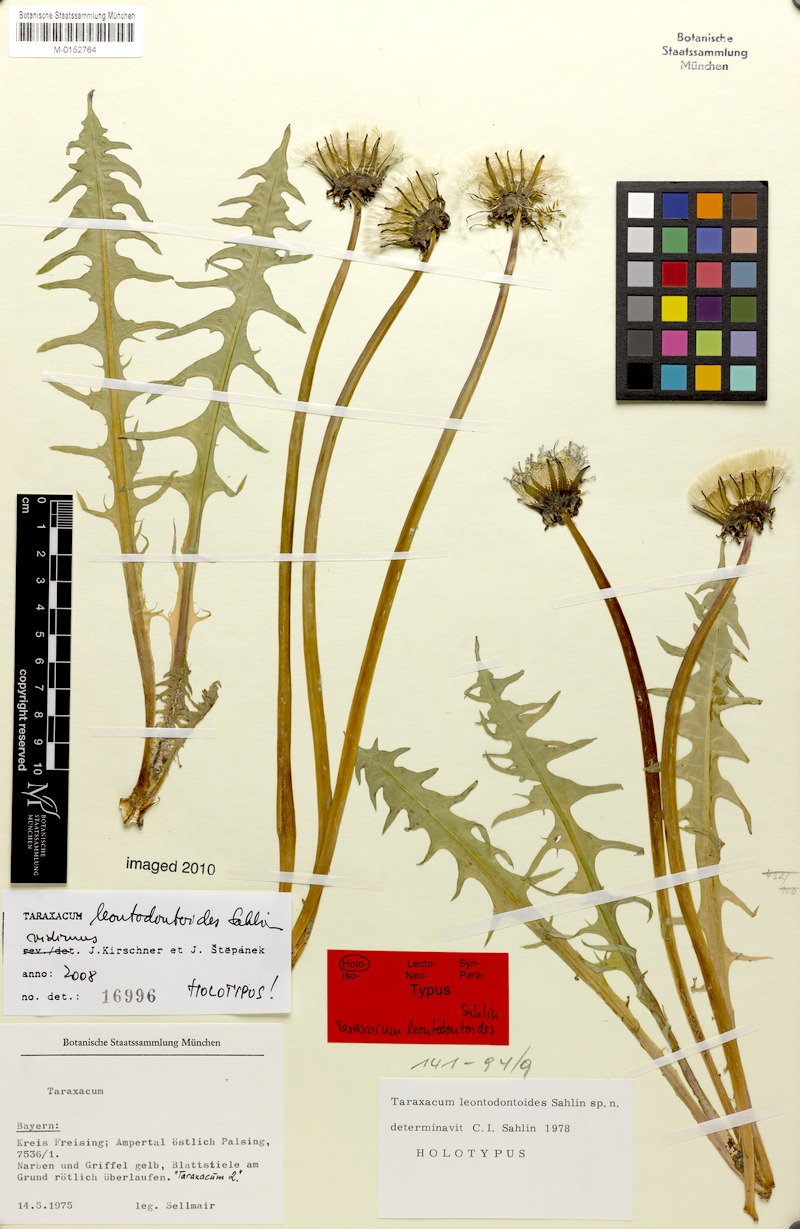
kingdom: Plantae
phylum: Tracheophyta
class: Magnoliopsida
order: Asterales
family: Asteraceae
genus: Taraxacum
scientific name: Taraxacum gentile
